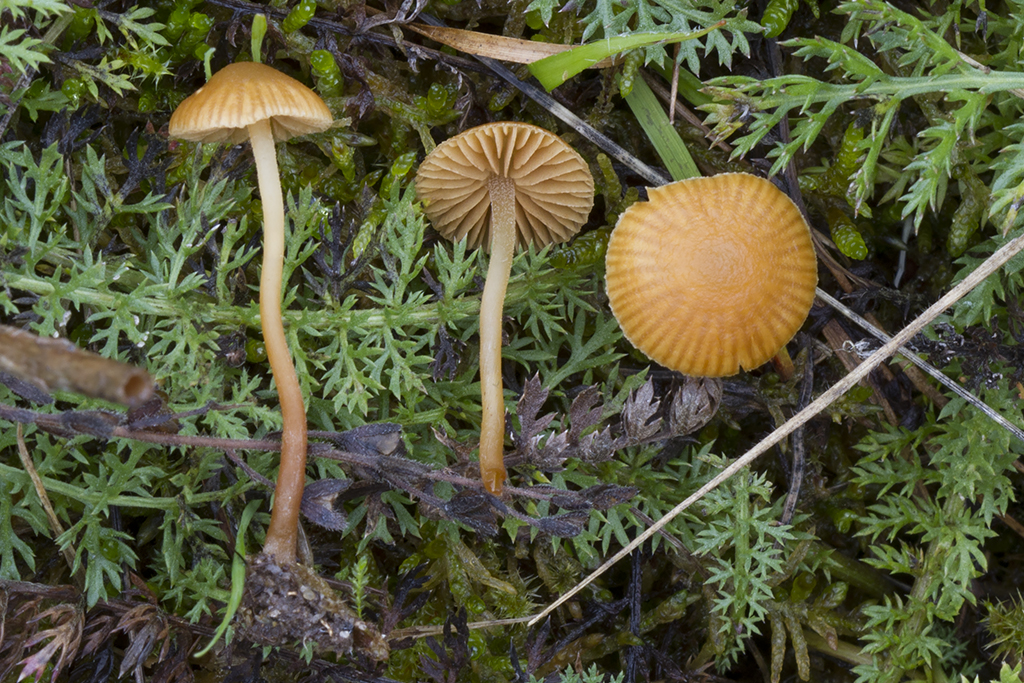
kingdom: Fungi
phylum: Basidiomycota
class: Agaricomycetes
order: Agaricales
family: Hymenogastraceae
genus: Galerina
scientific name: Galerina vittiformis
